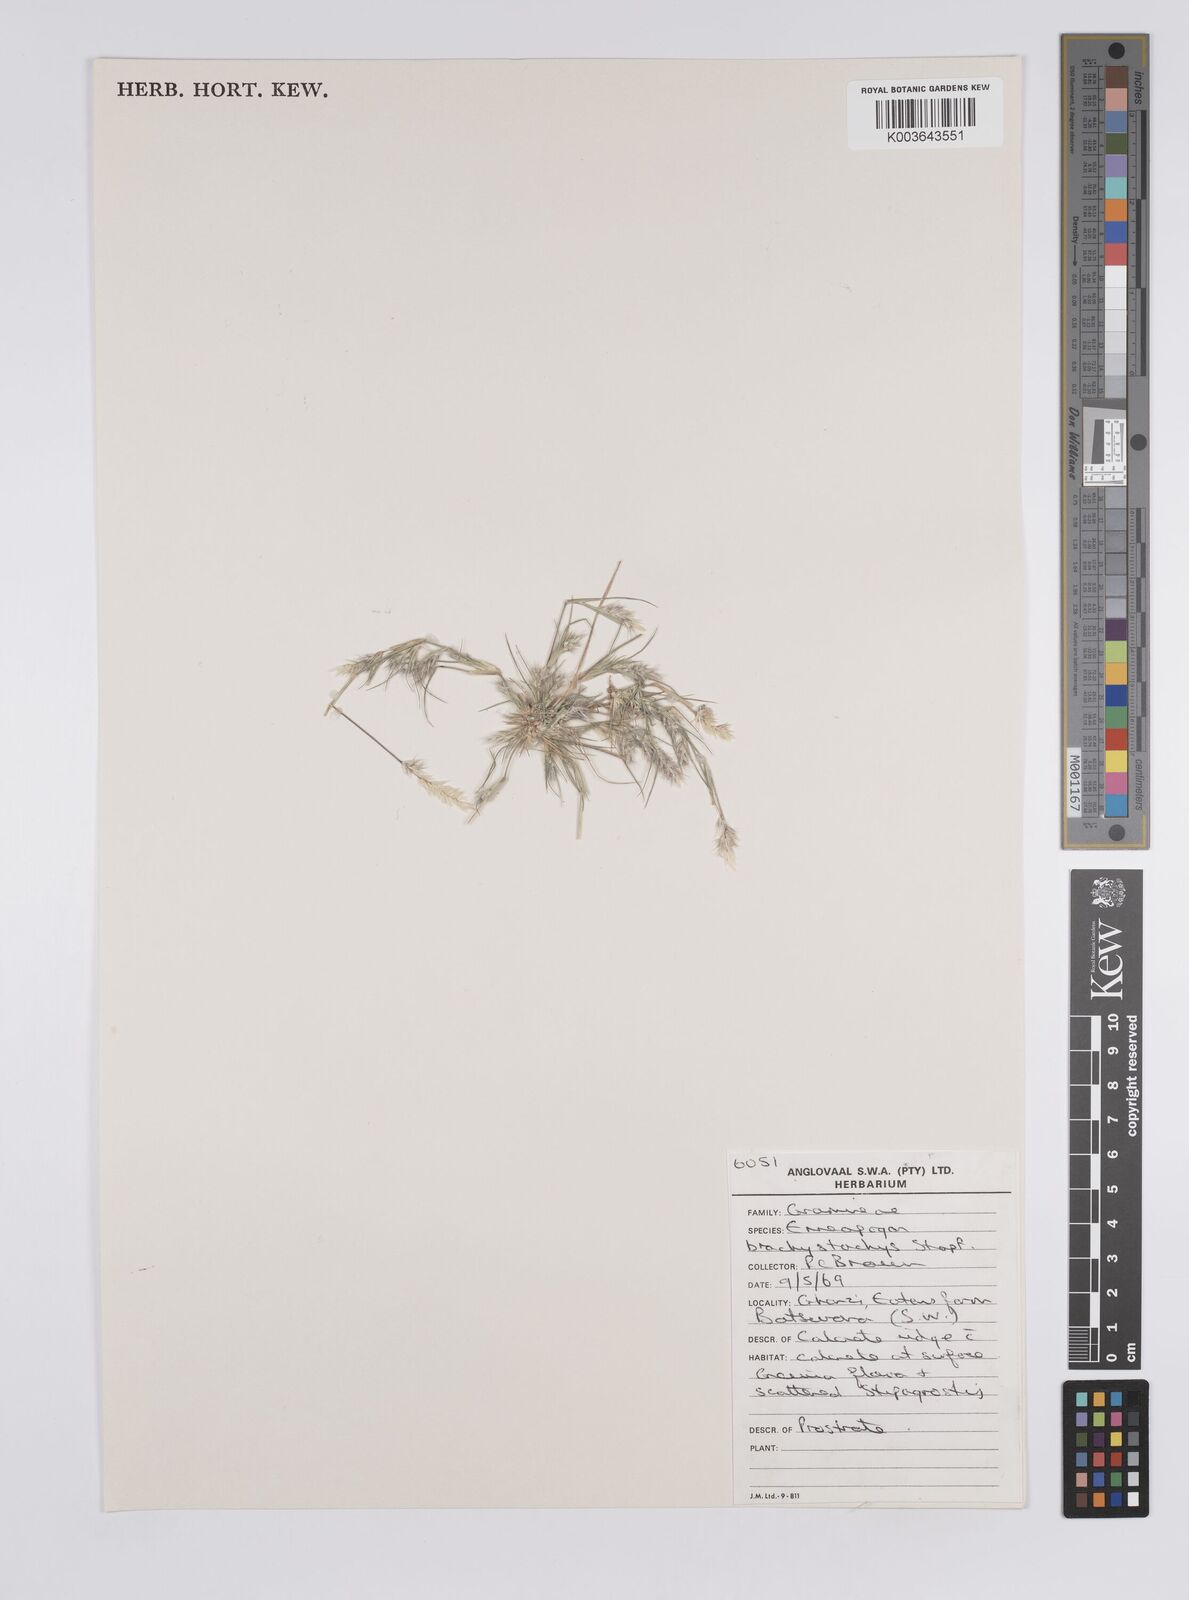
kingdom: Plantae
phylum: Tracheophyta
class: Liliopsida
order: Poales
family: Poaceae
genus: Enneapogon
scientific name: Enneapogon desvauxii
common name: Feather pappus grass
